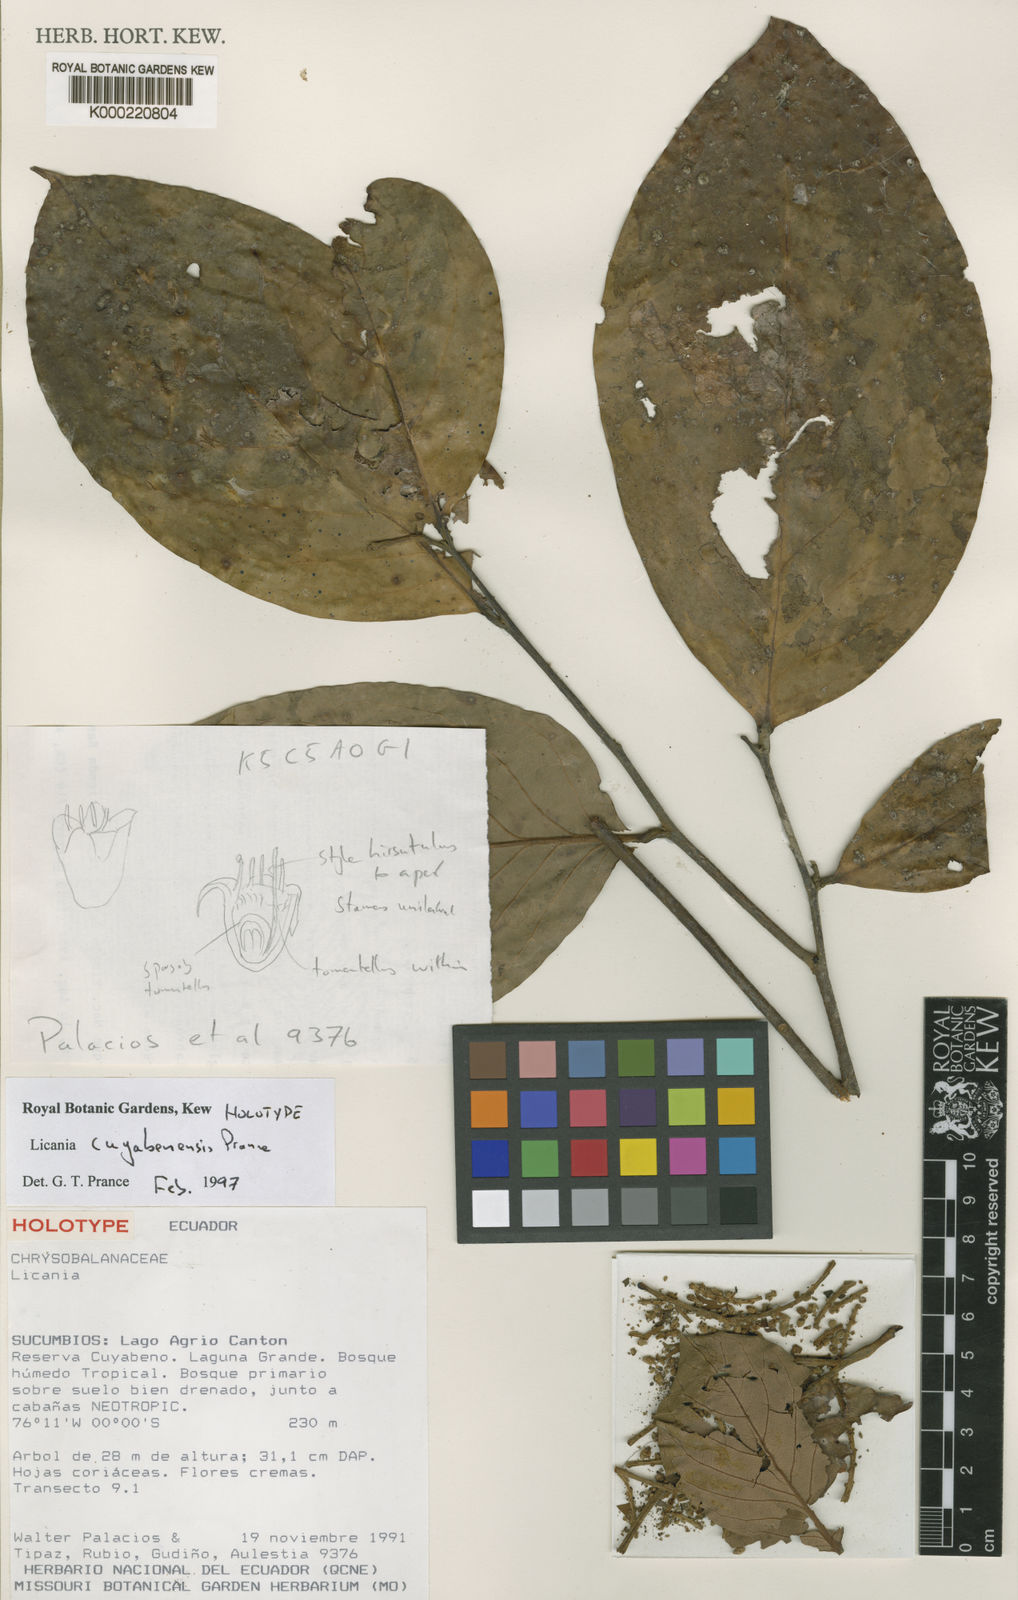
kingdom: Plantae
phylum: Tracheophyta
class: Magnoliopsida
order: Malpighiales
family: Chrysobalanaceae
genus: Licania
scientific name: Licania cuyabenensis
